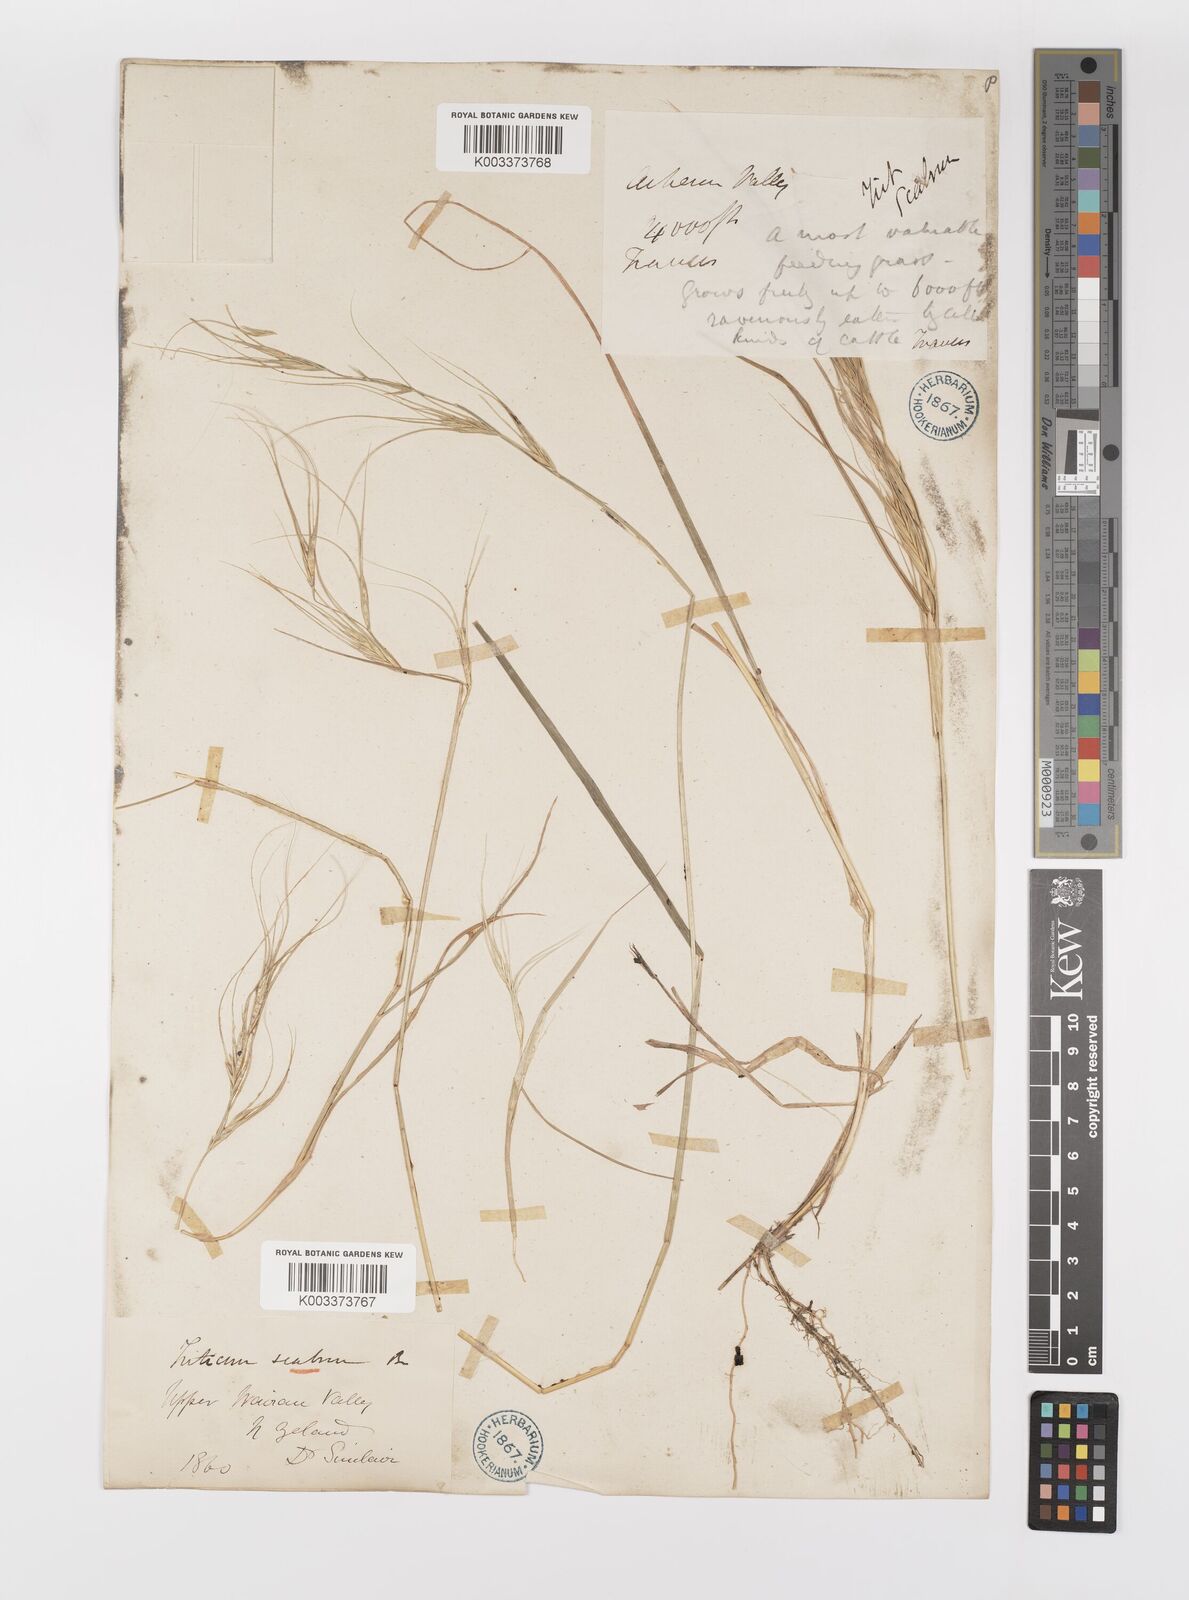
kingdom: Plantae
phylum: Tracheophyta
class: Liliopsida
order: Poales
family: Poaceae
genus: Anthosachne
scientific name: Anthosachne scabra
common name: Common wheatgrass
